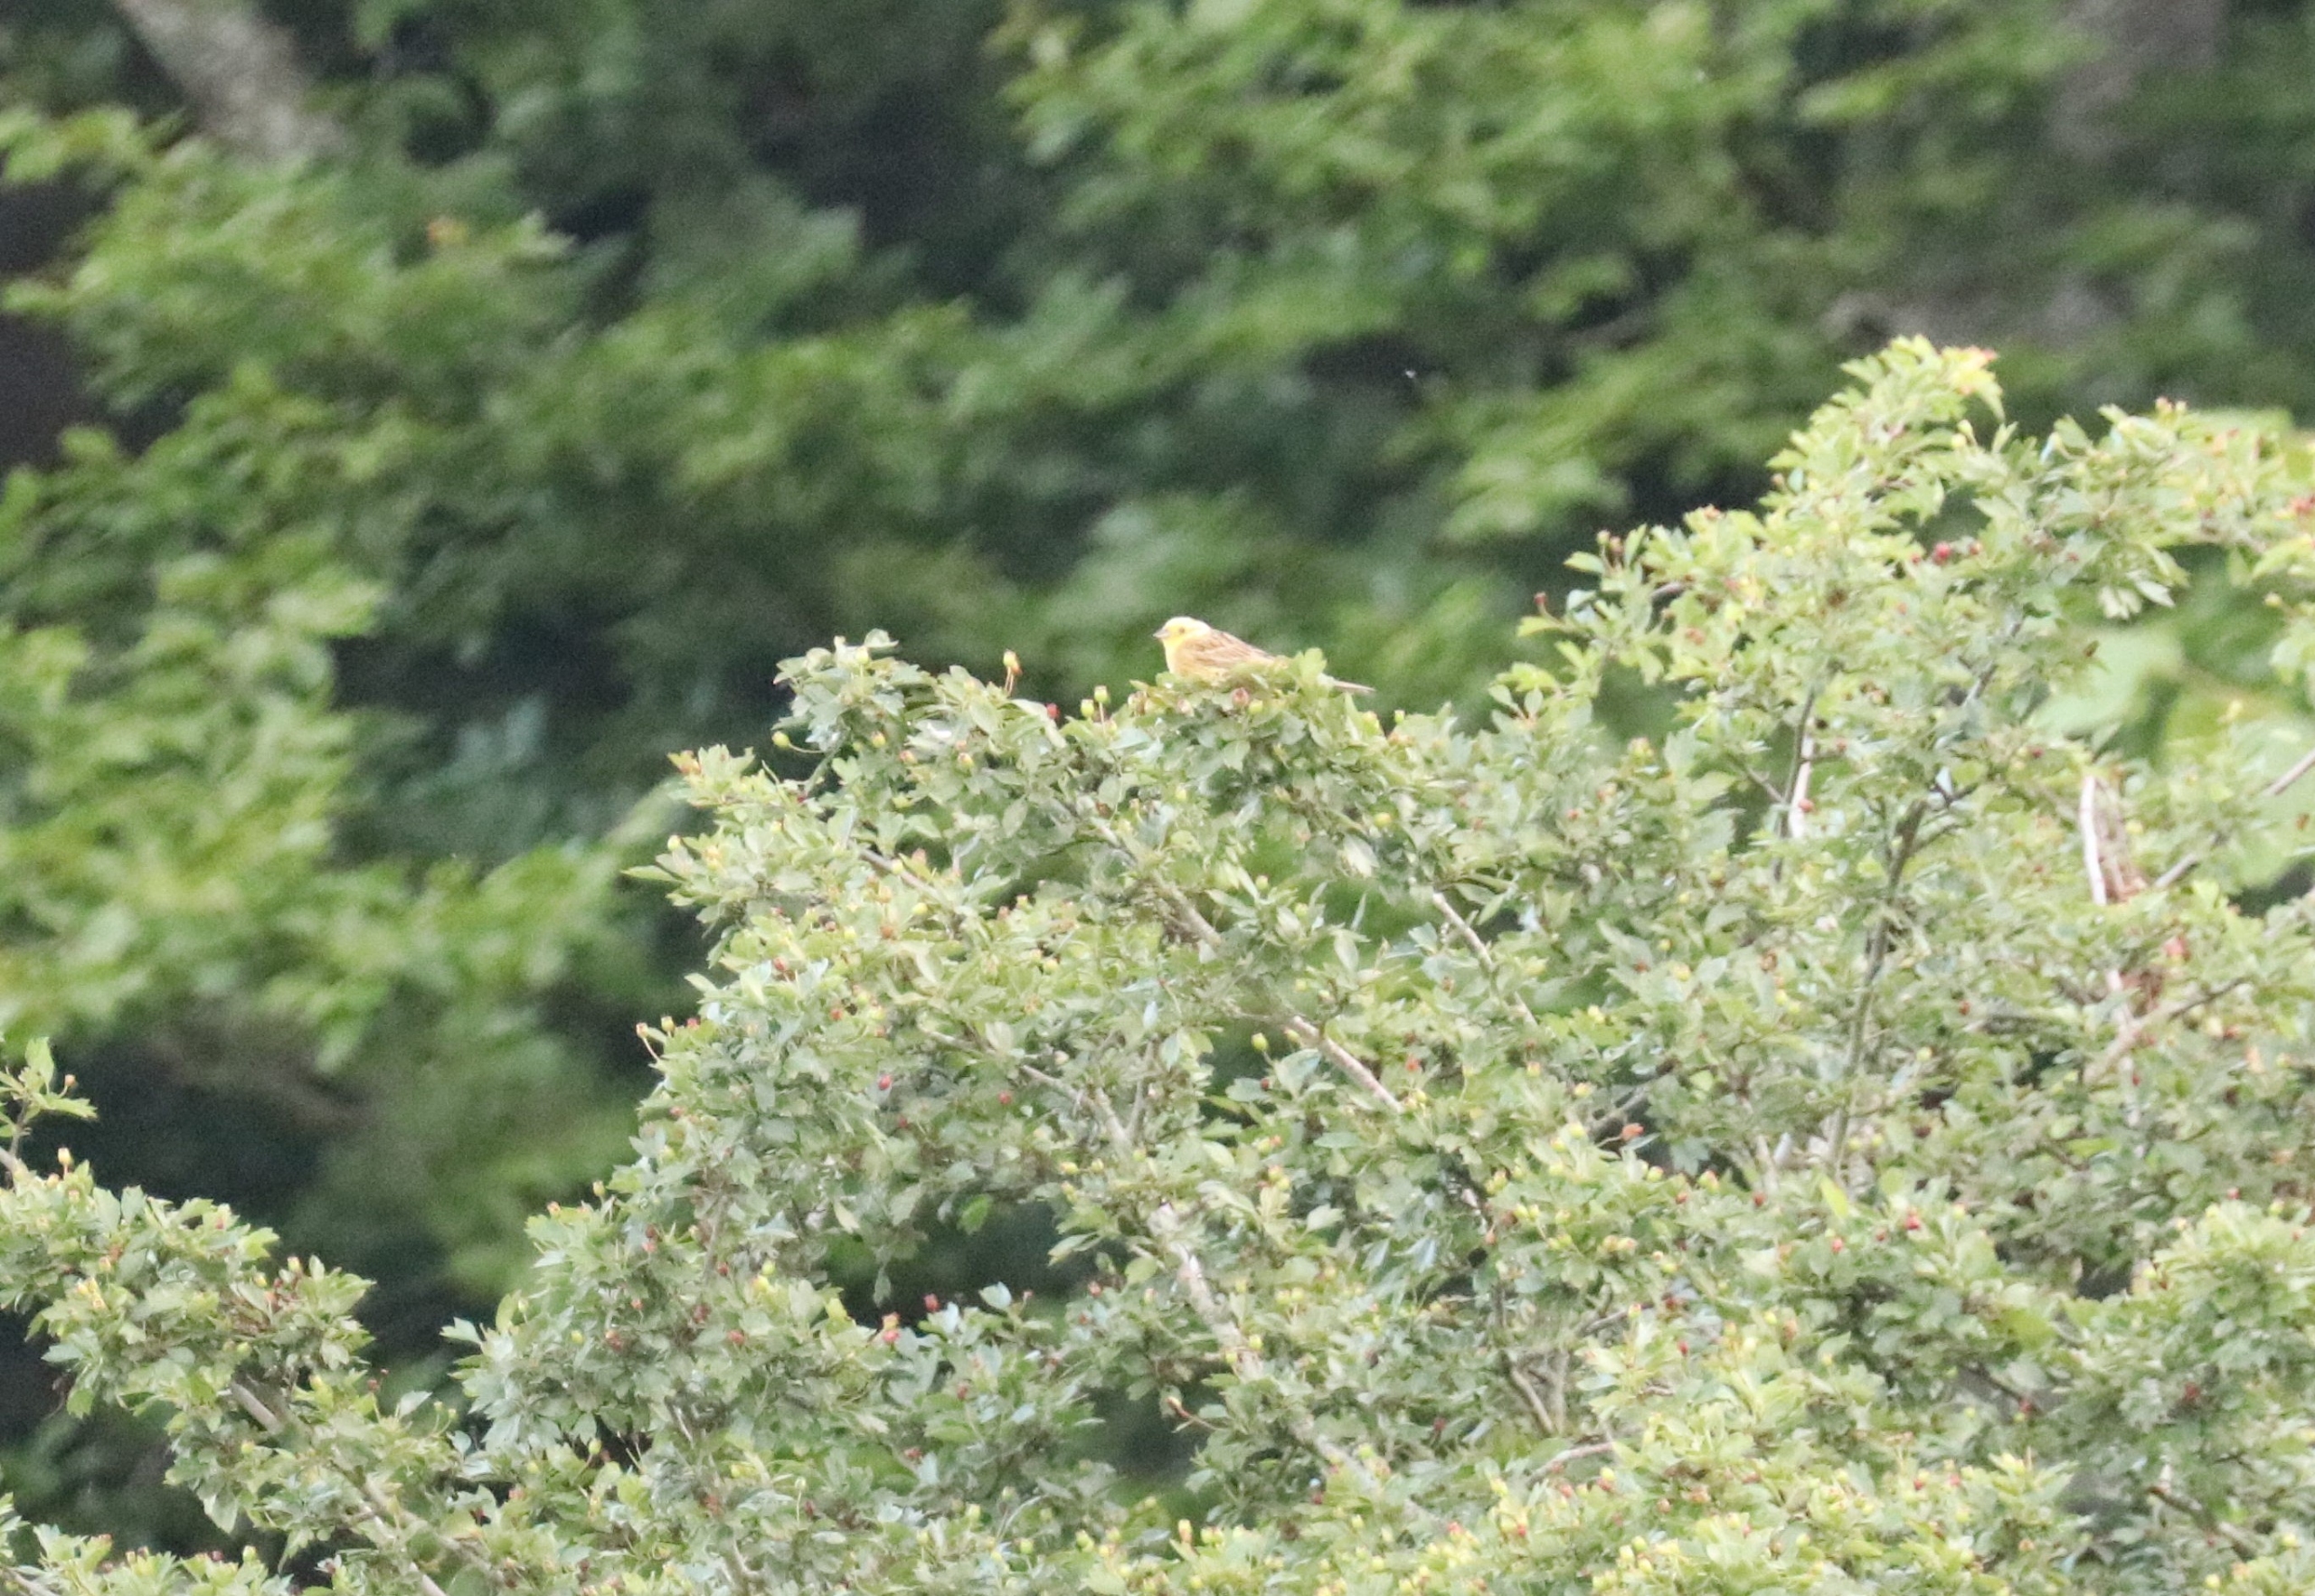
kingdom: Animalia
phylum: Chordata
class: Aves
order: Passeriformes
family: Emberizidae
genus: Emberiza
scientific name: Emberiza citrinella
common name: Gulspurv
